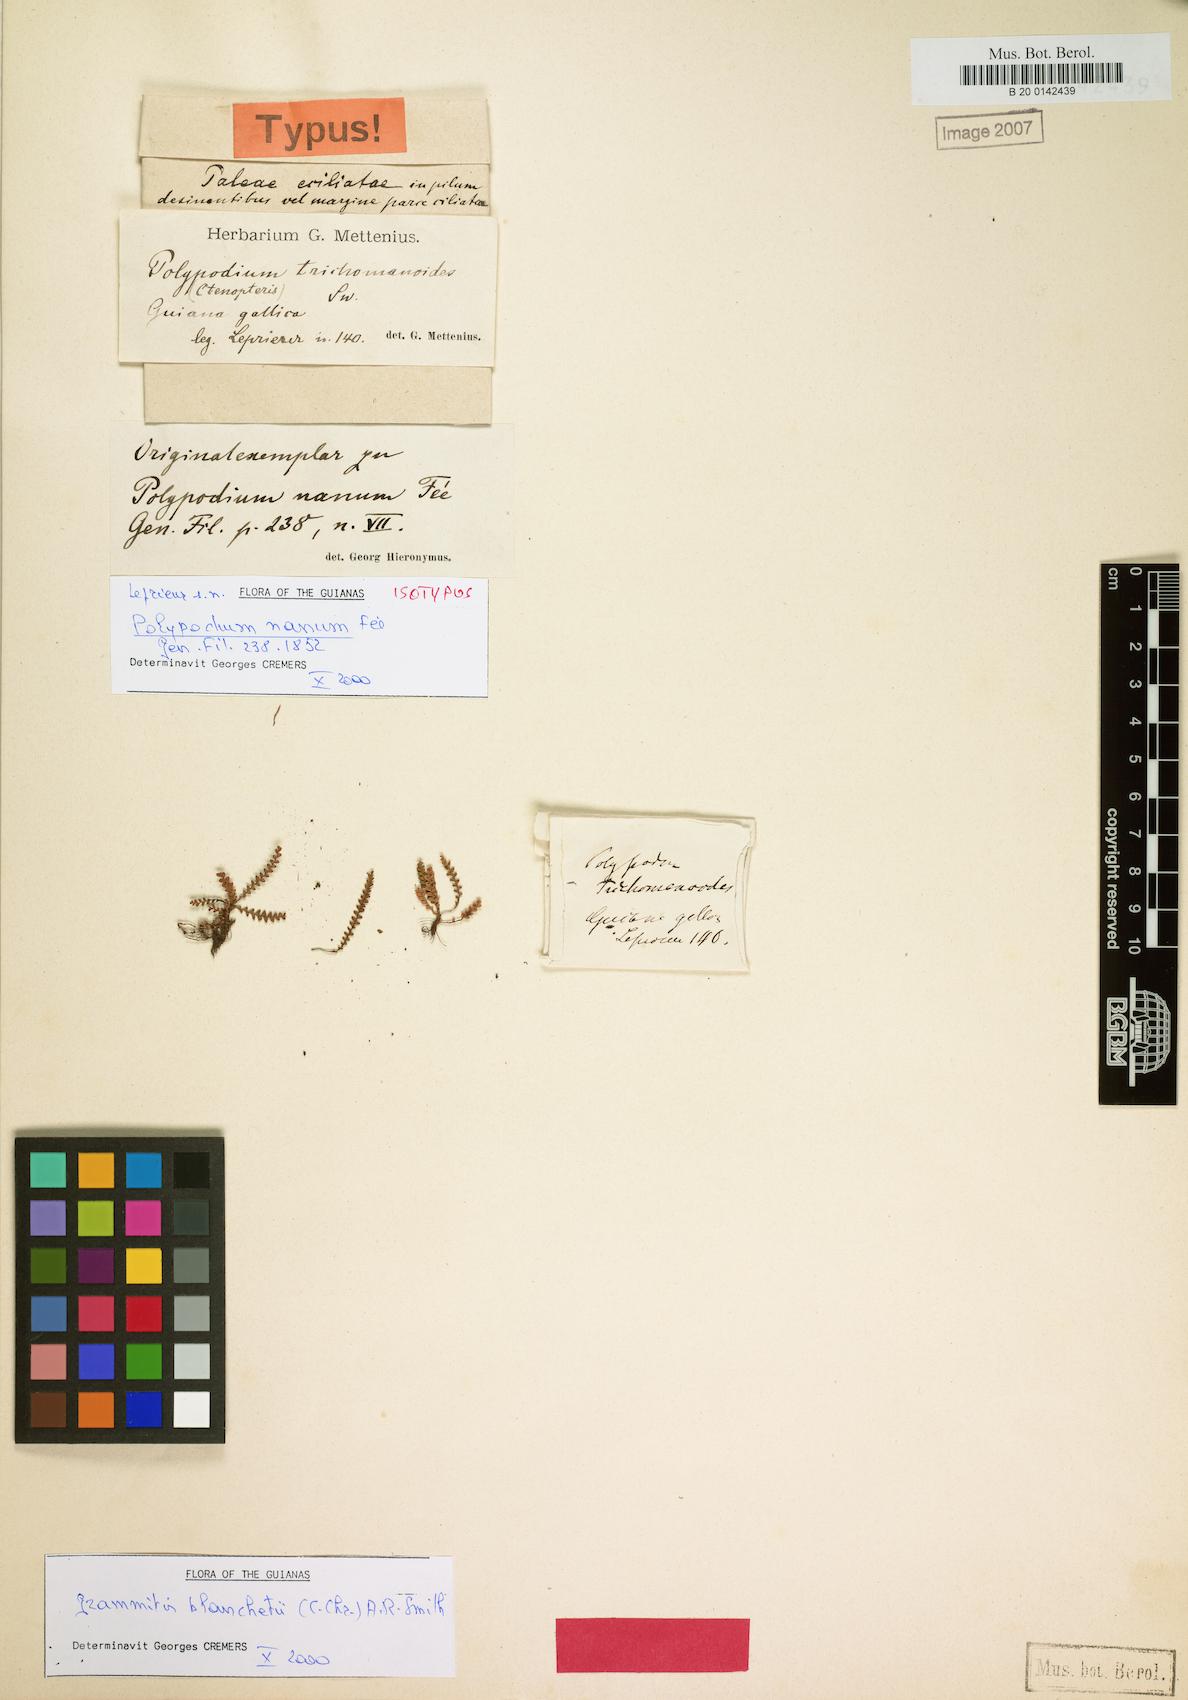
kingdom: Plantae
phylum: Tracheophyta
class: Polypodiopsida
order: Polypodiales
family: Polypodiaceae
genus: Moranopteris
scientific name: Moranopteris nana
